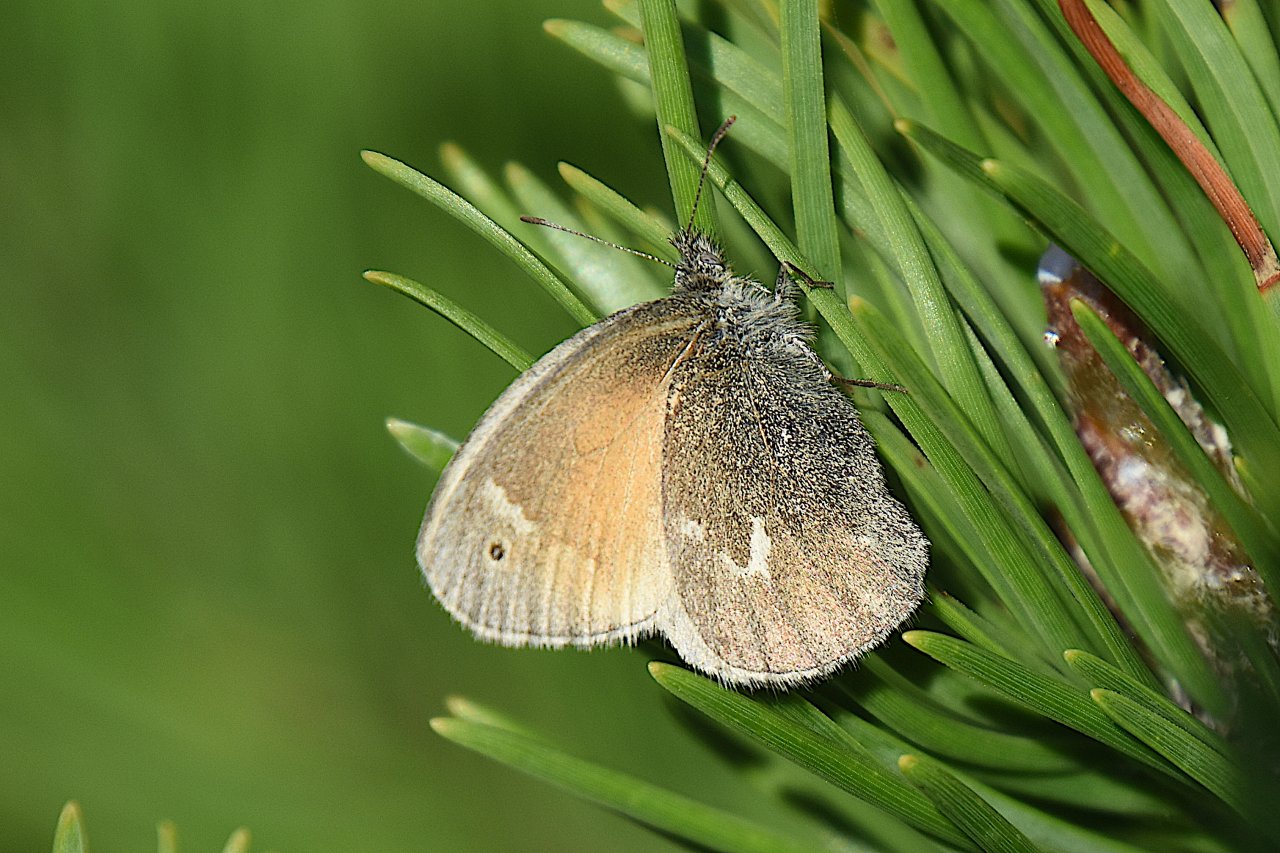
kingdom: Animalia
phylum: Arthropoda
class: Insecta
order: Lepidoptera
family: Nymphalidae
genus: Coenonympha
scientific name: Coenonympha tullia
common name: Large Heath
